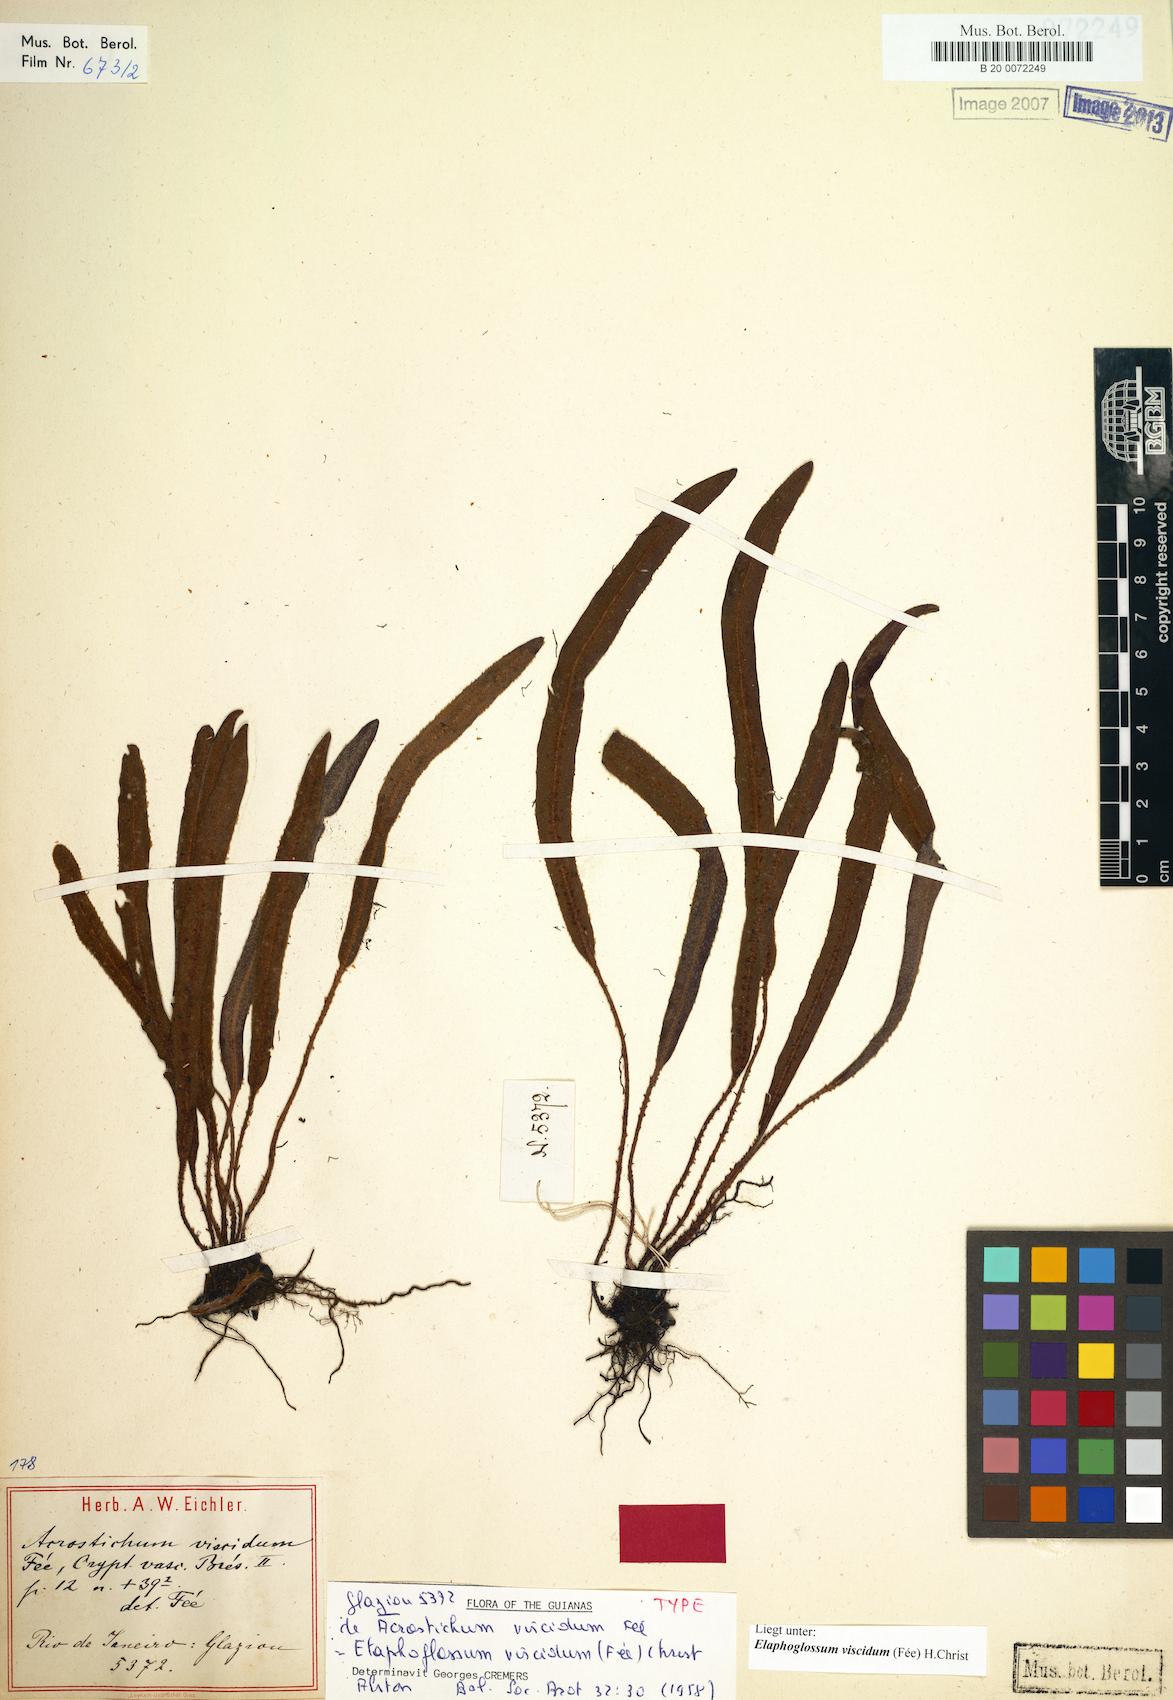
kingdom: Plantae
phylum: Tracheophyta
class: Polypodiopsida
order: Polypodiales
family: Dryopteridaceae
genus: Elaphoglossum
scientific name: Elaphoglossum viscidum
